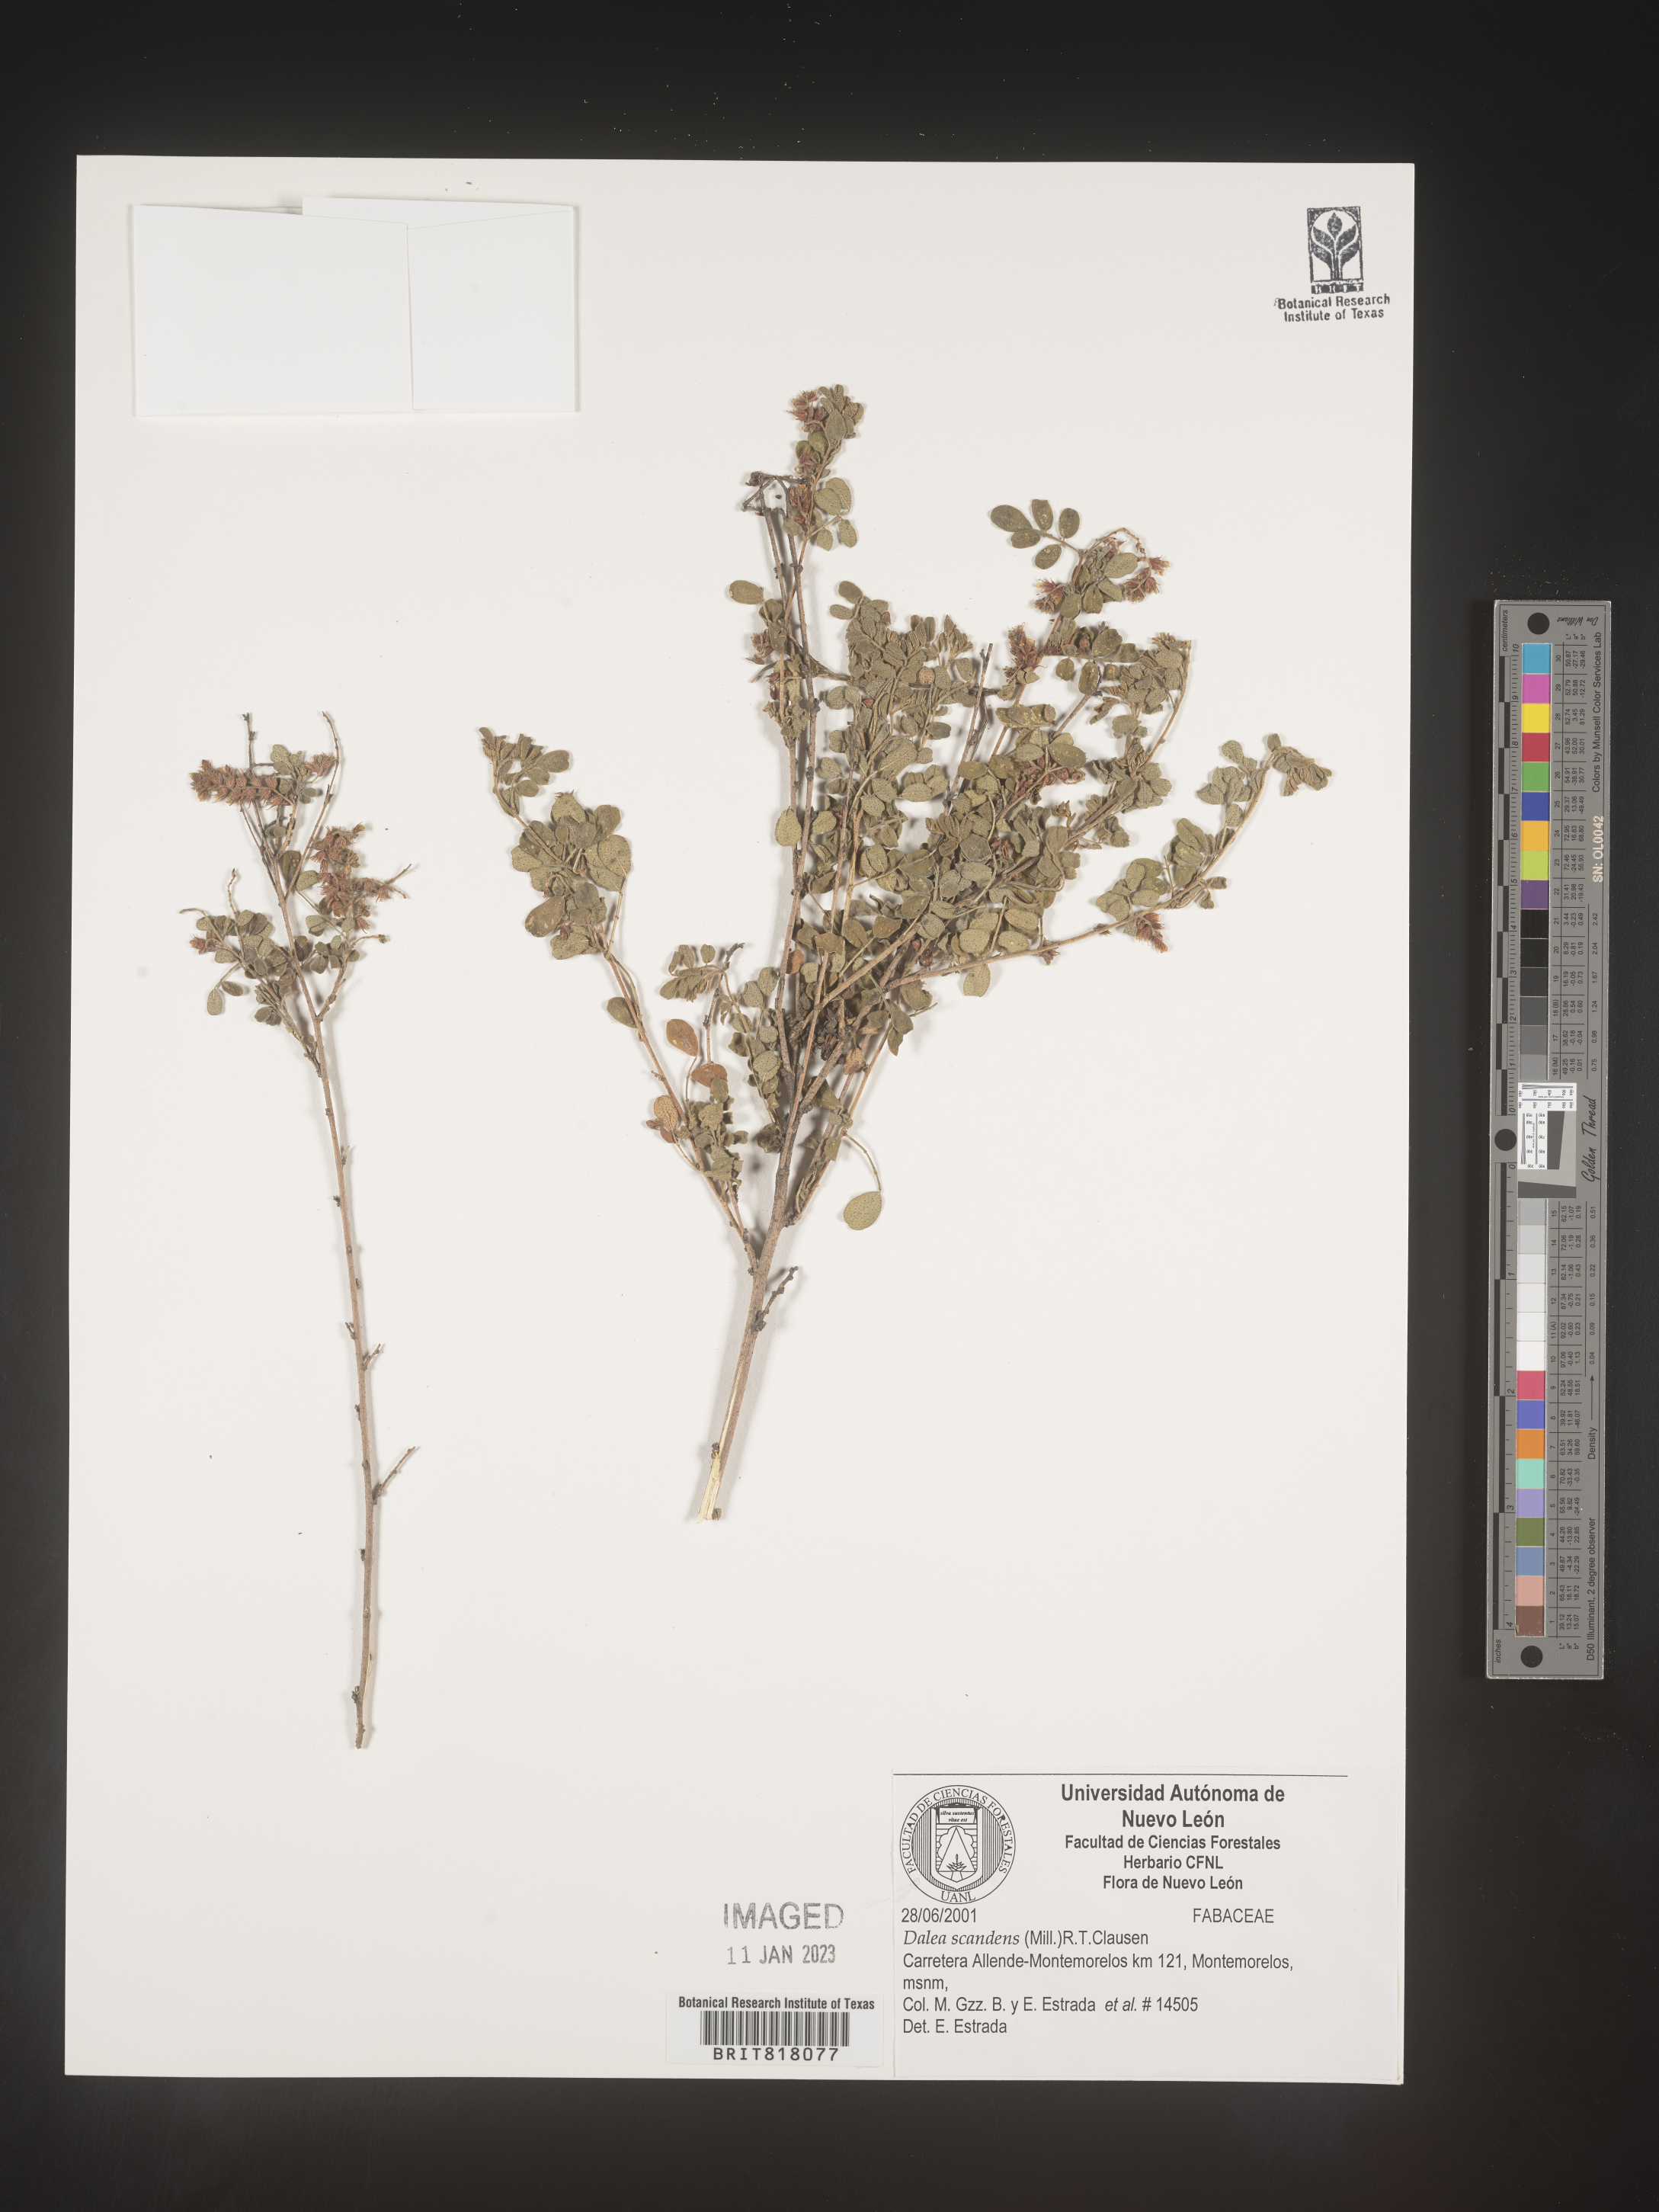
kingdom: Plantae
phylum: Tracheophyta
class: Magnoliopsida
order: Fabales
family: Fabaceae
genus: Dalea
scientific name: Dalea
